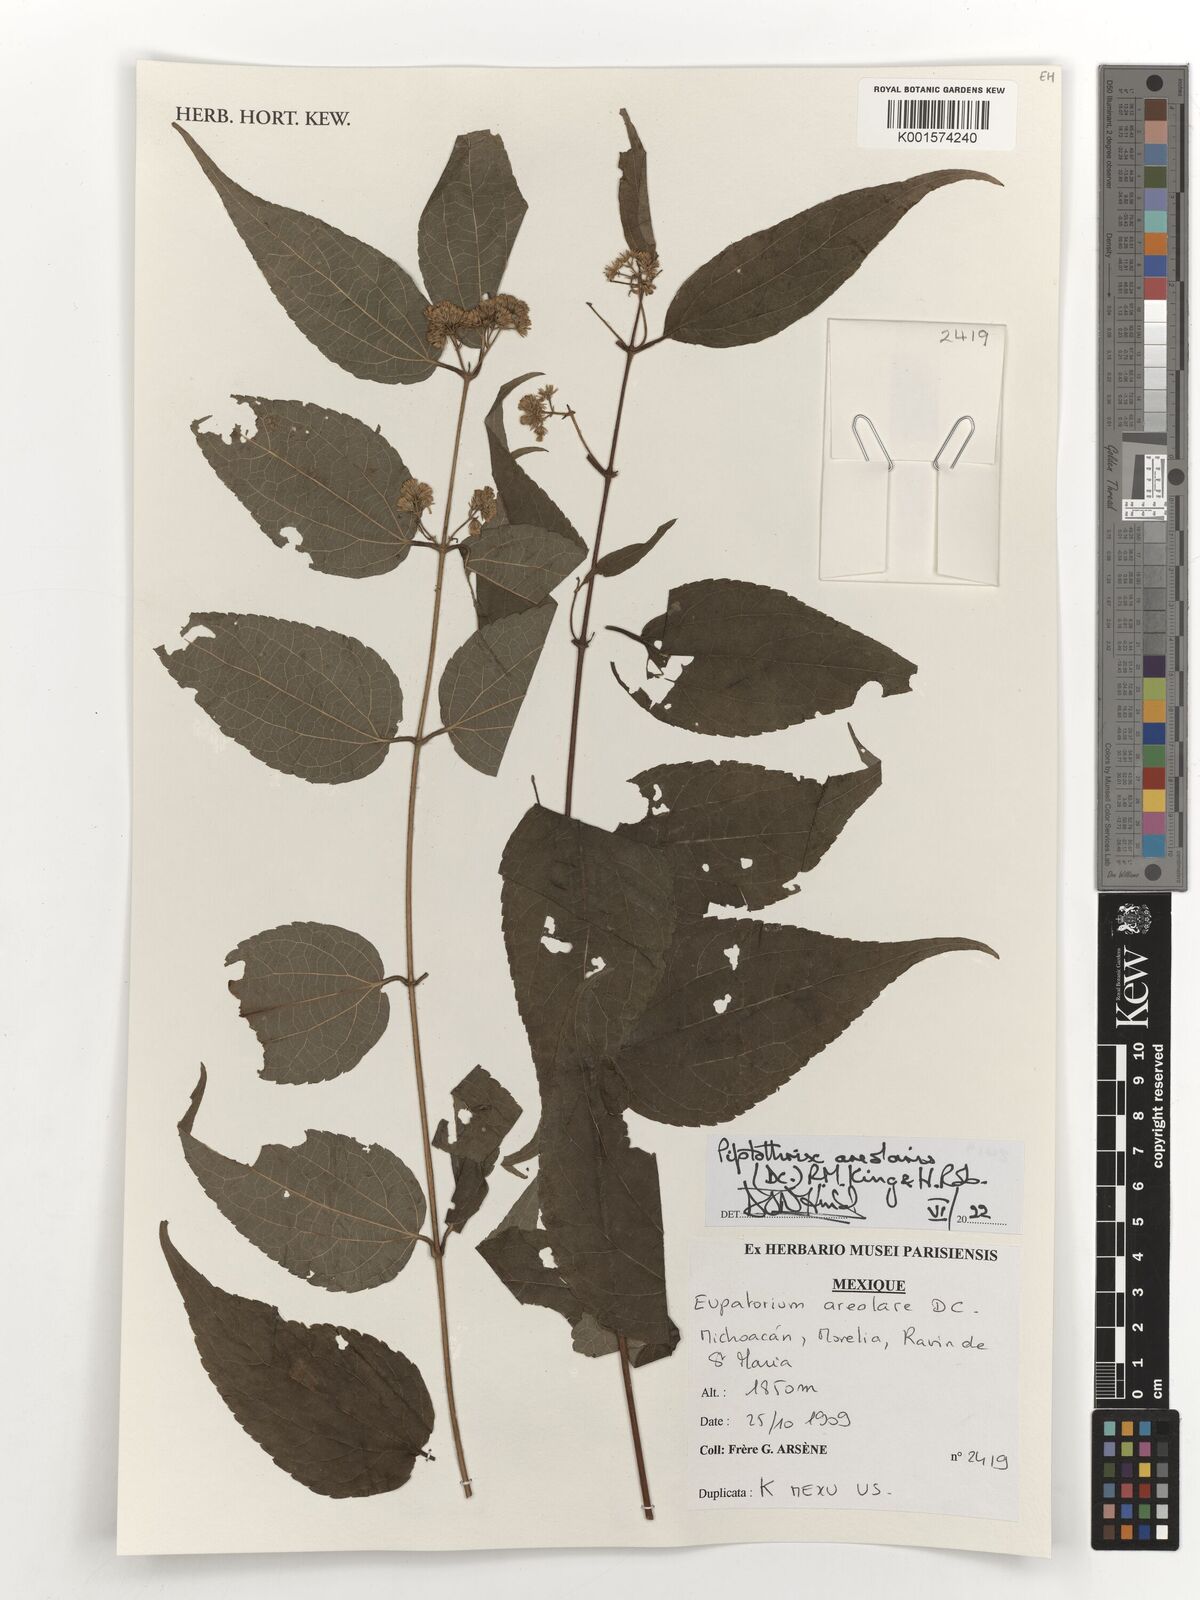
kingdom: Plantae
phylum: Tracheophyta
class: Magnoliopsida
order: Asterales
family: Asteraceae
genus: Ageratina
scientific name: Ageratina areolaris
